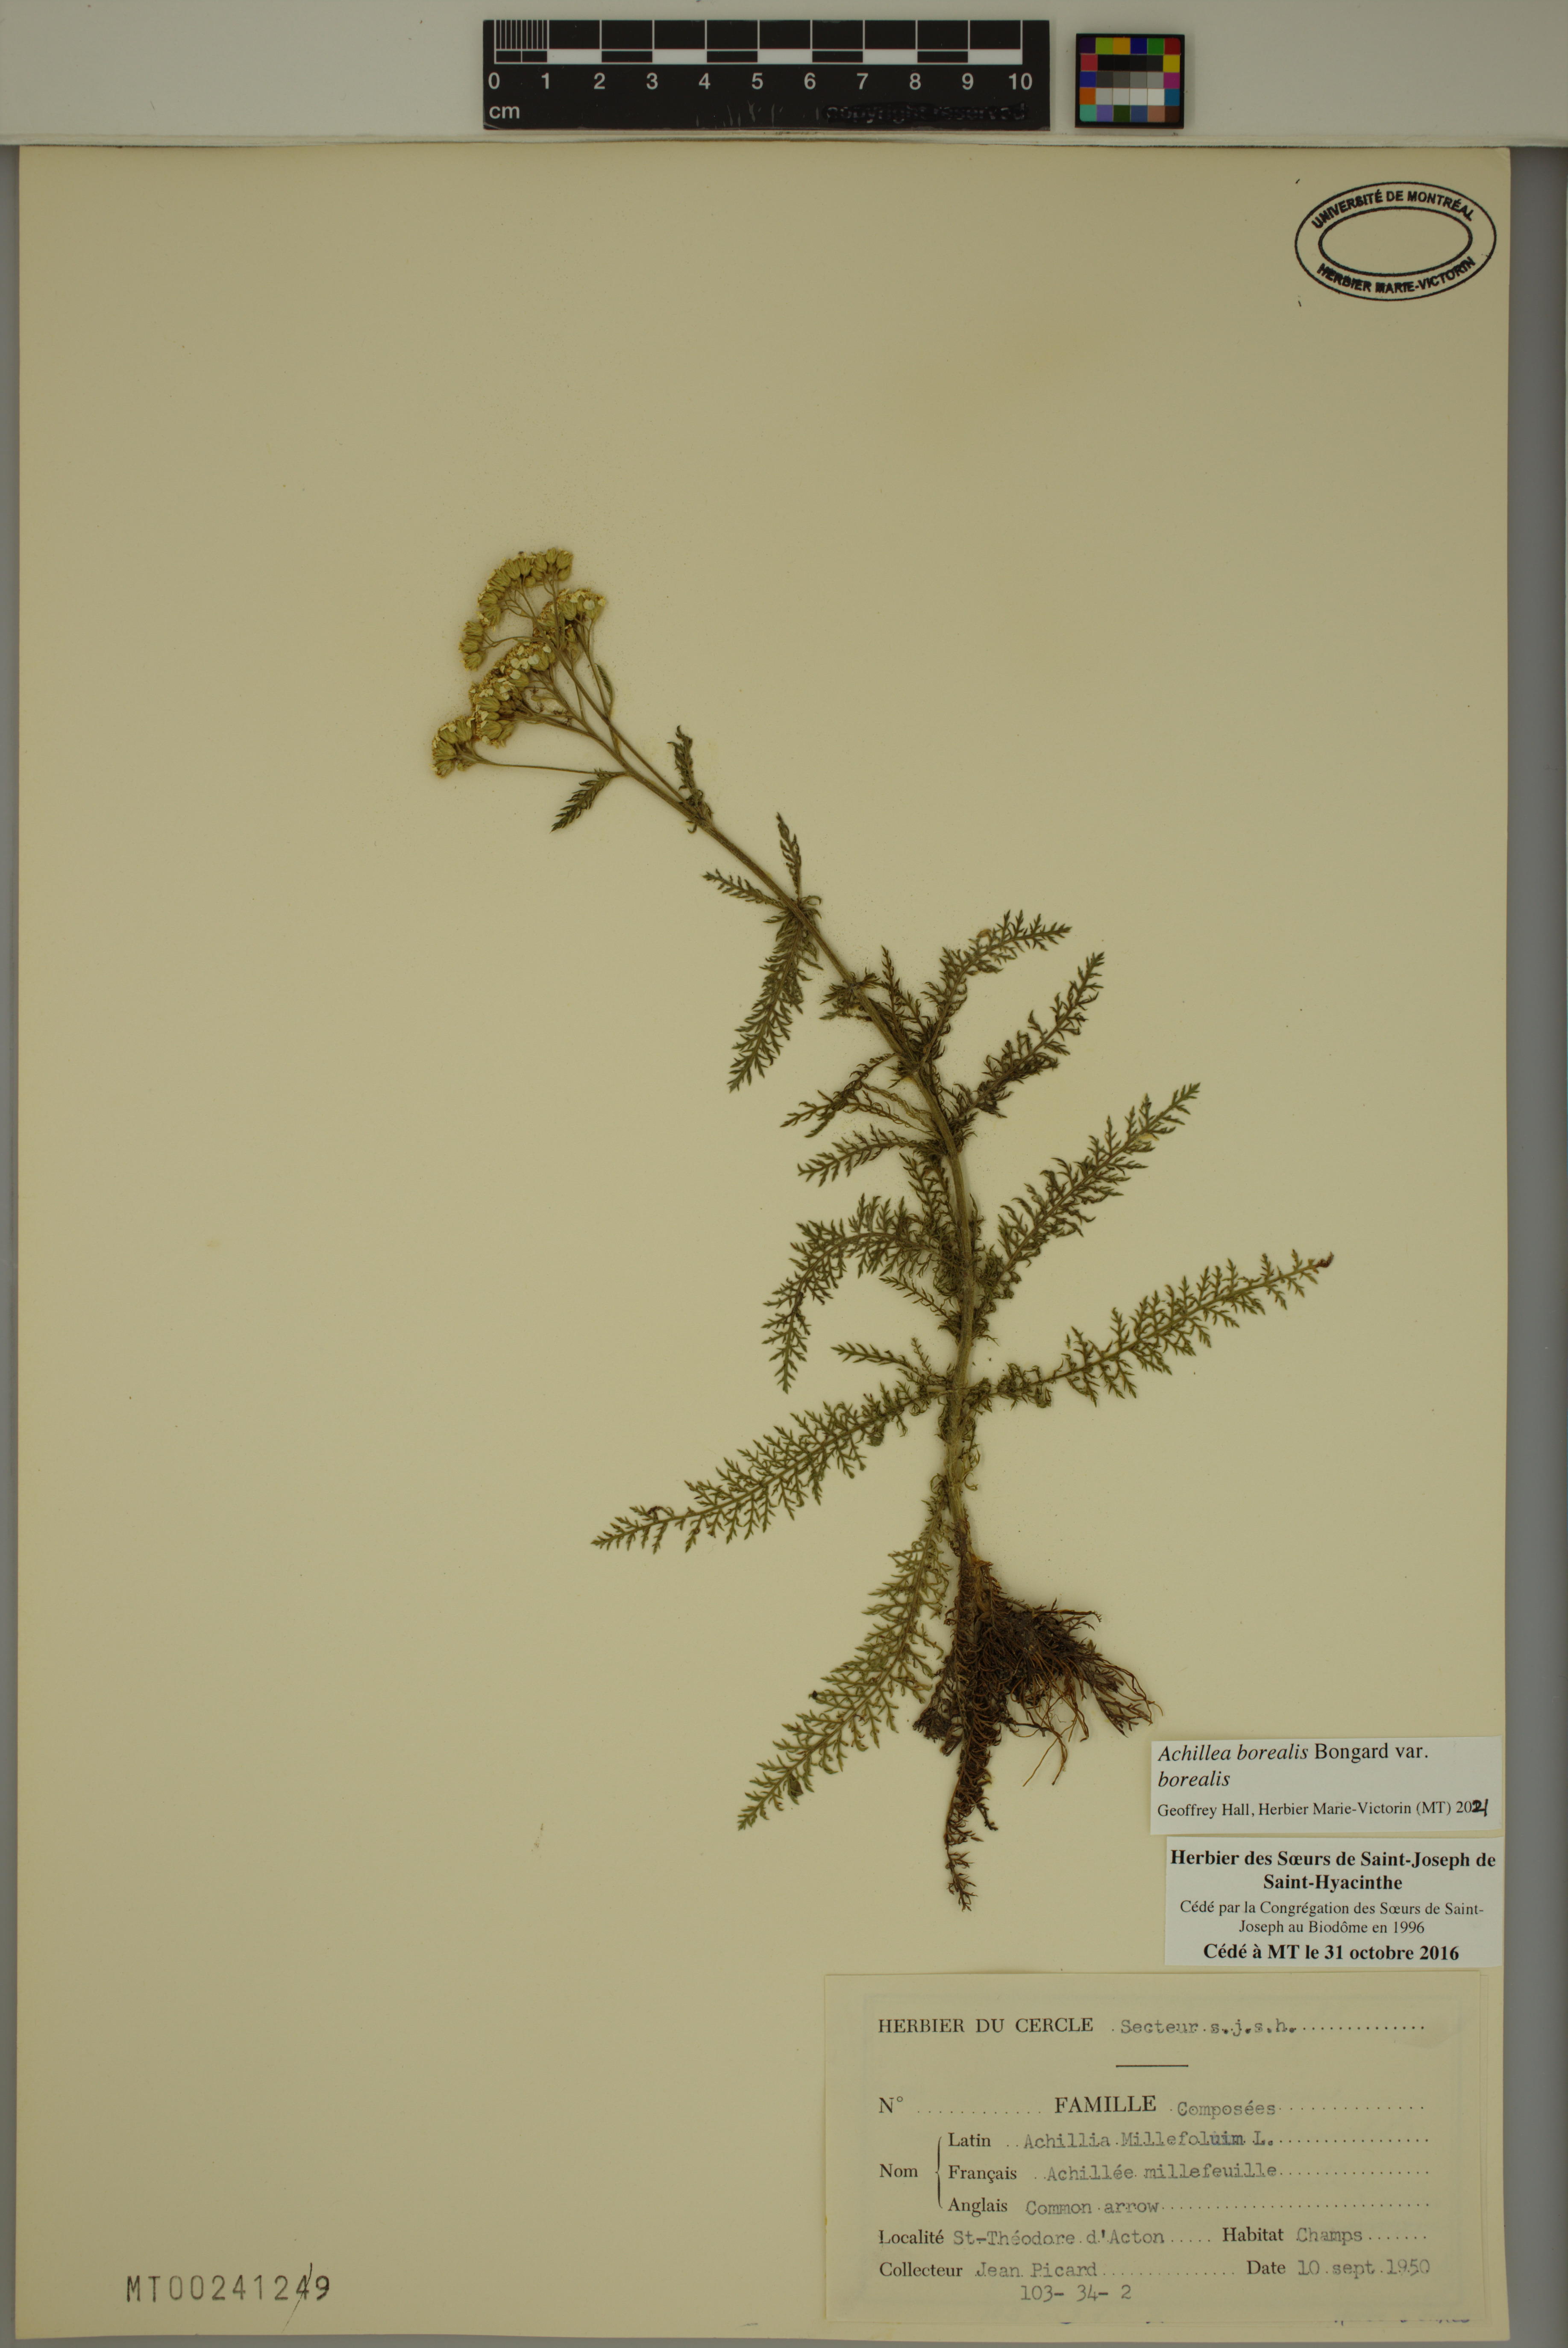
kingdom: Plantae
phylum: Tracheophyta
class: Magnoliopsida
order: Asterales
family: Asteraceae
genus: Achillea
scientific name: Achillea millefolium
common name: Yarrow
